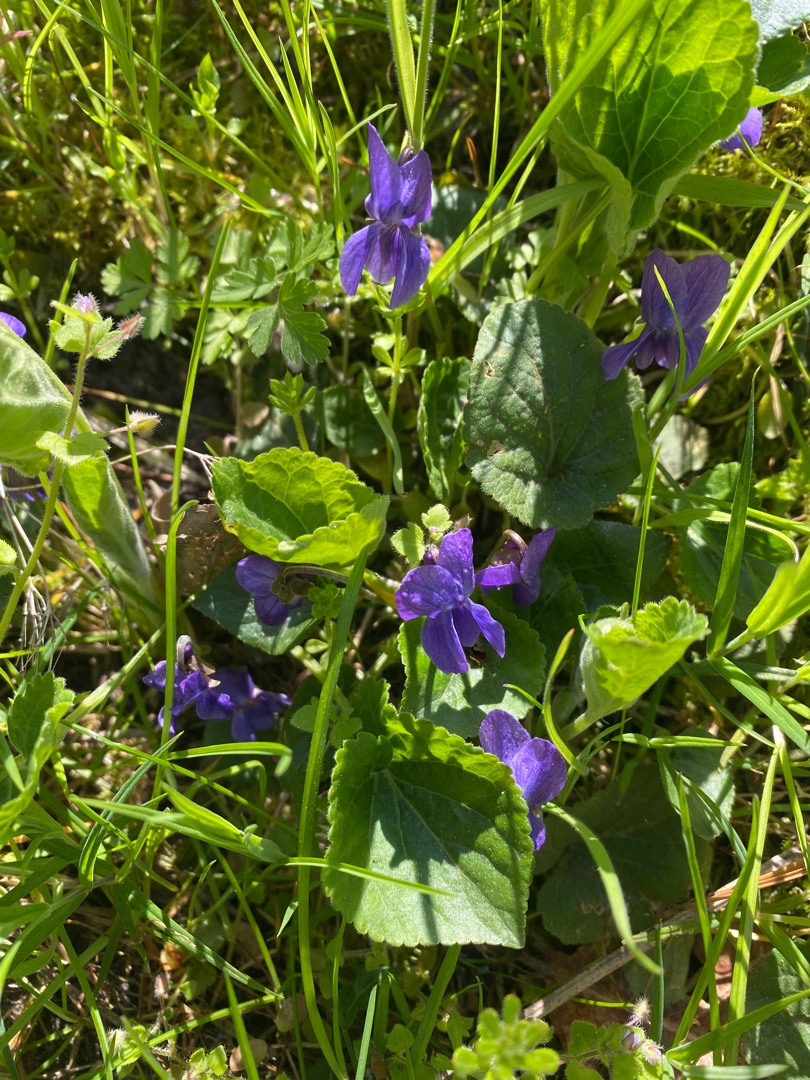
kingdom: Plantae
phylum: Tracheophyta
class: Magnoliopsida
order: Malpighiales
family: Violaceae
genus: Viola
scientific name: Viola odorata
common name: Marts-viol
